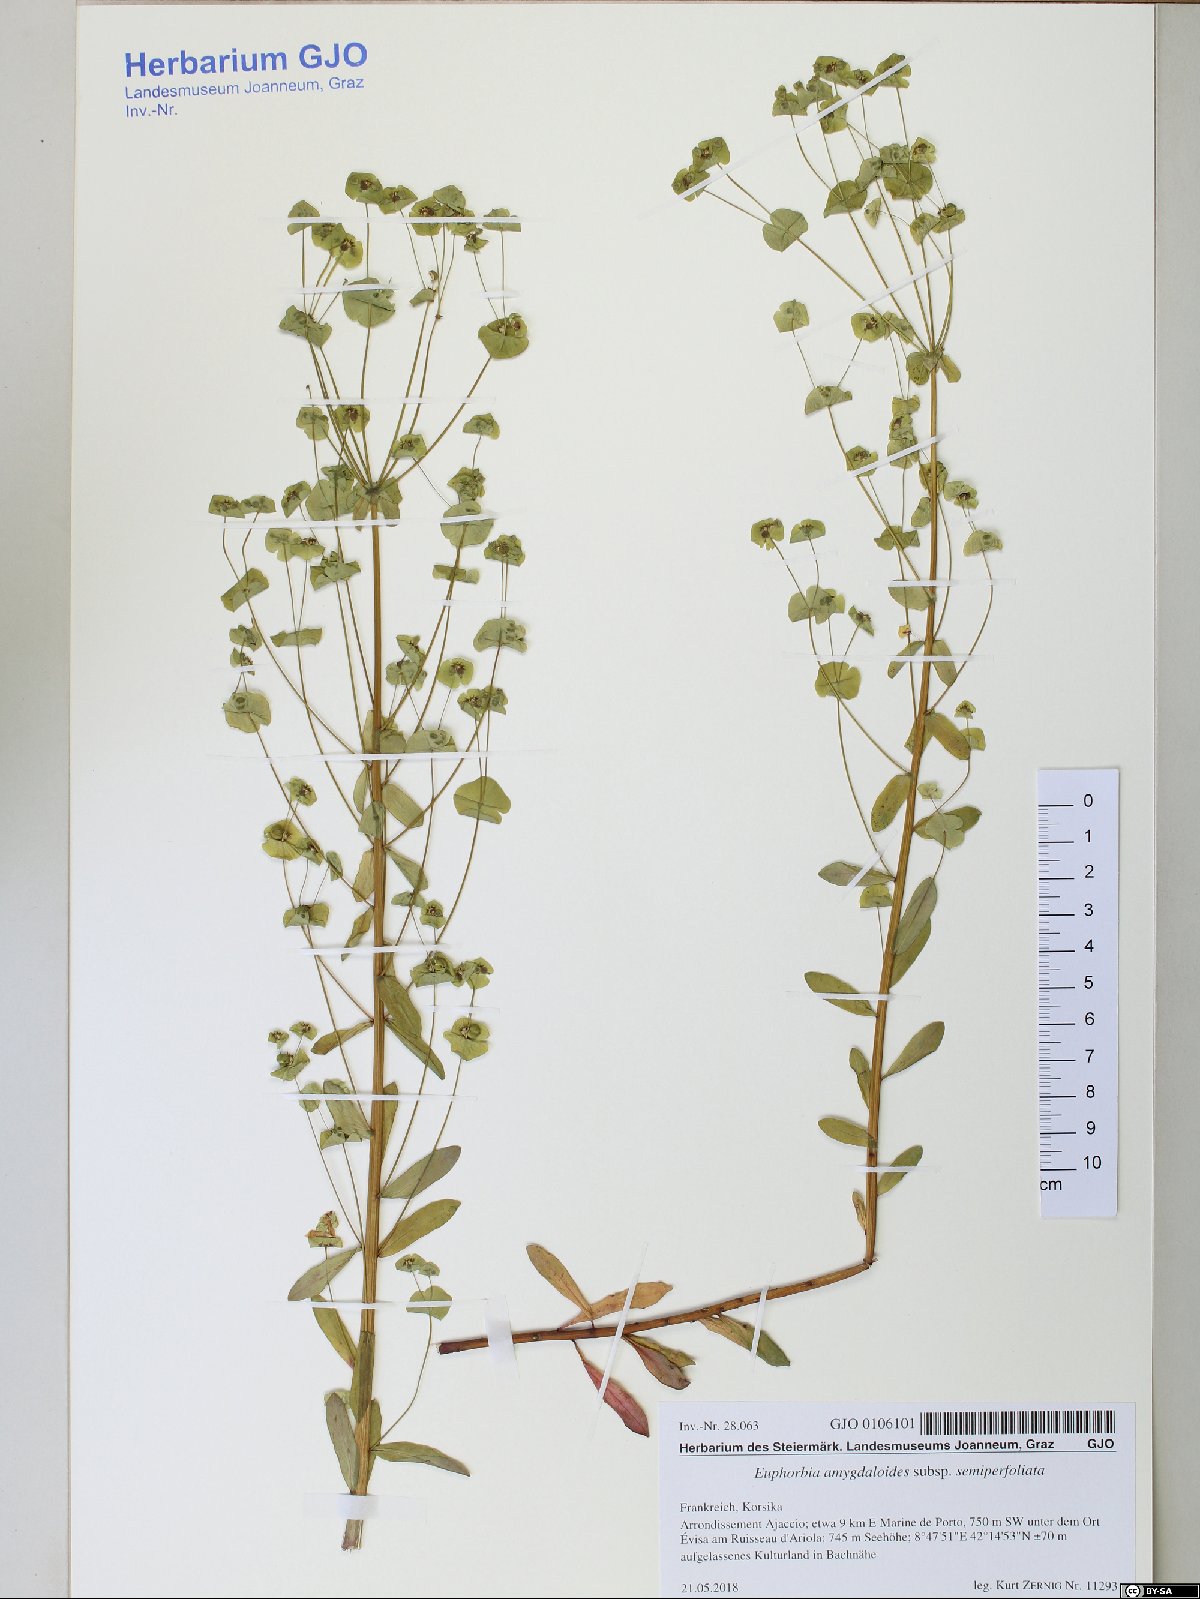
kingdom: Plantae
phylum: Tracheophyta
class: Magnoliopsida
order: Malpighiales
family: Euphorbiaceae
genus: Euphorbia
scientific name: Euphorbia semiperfoliata
